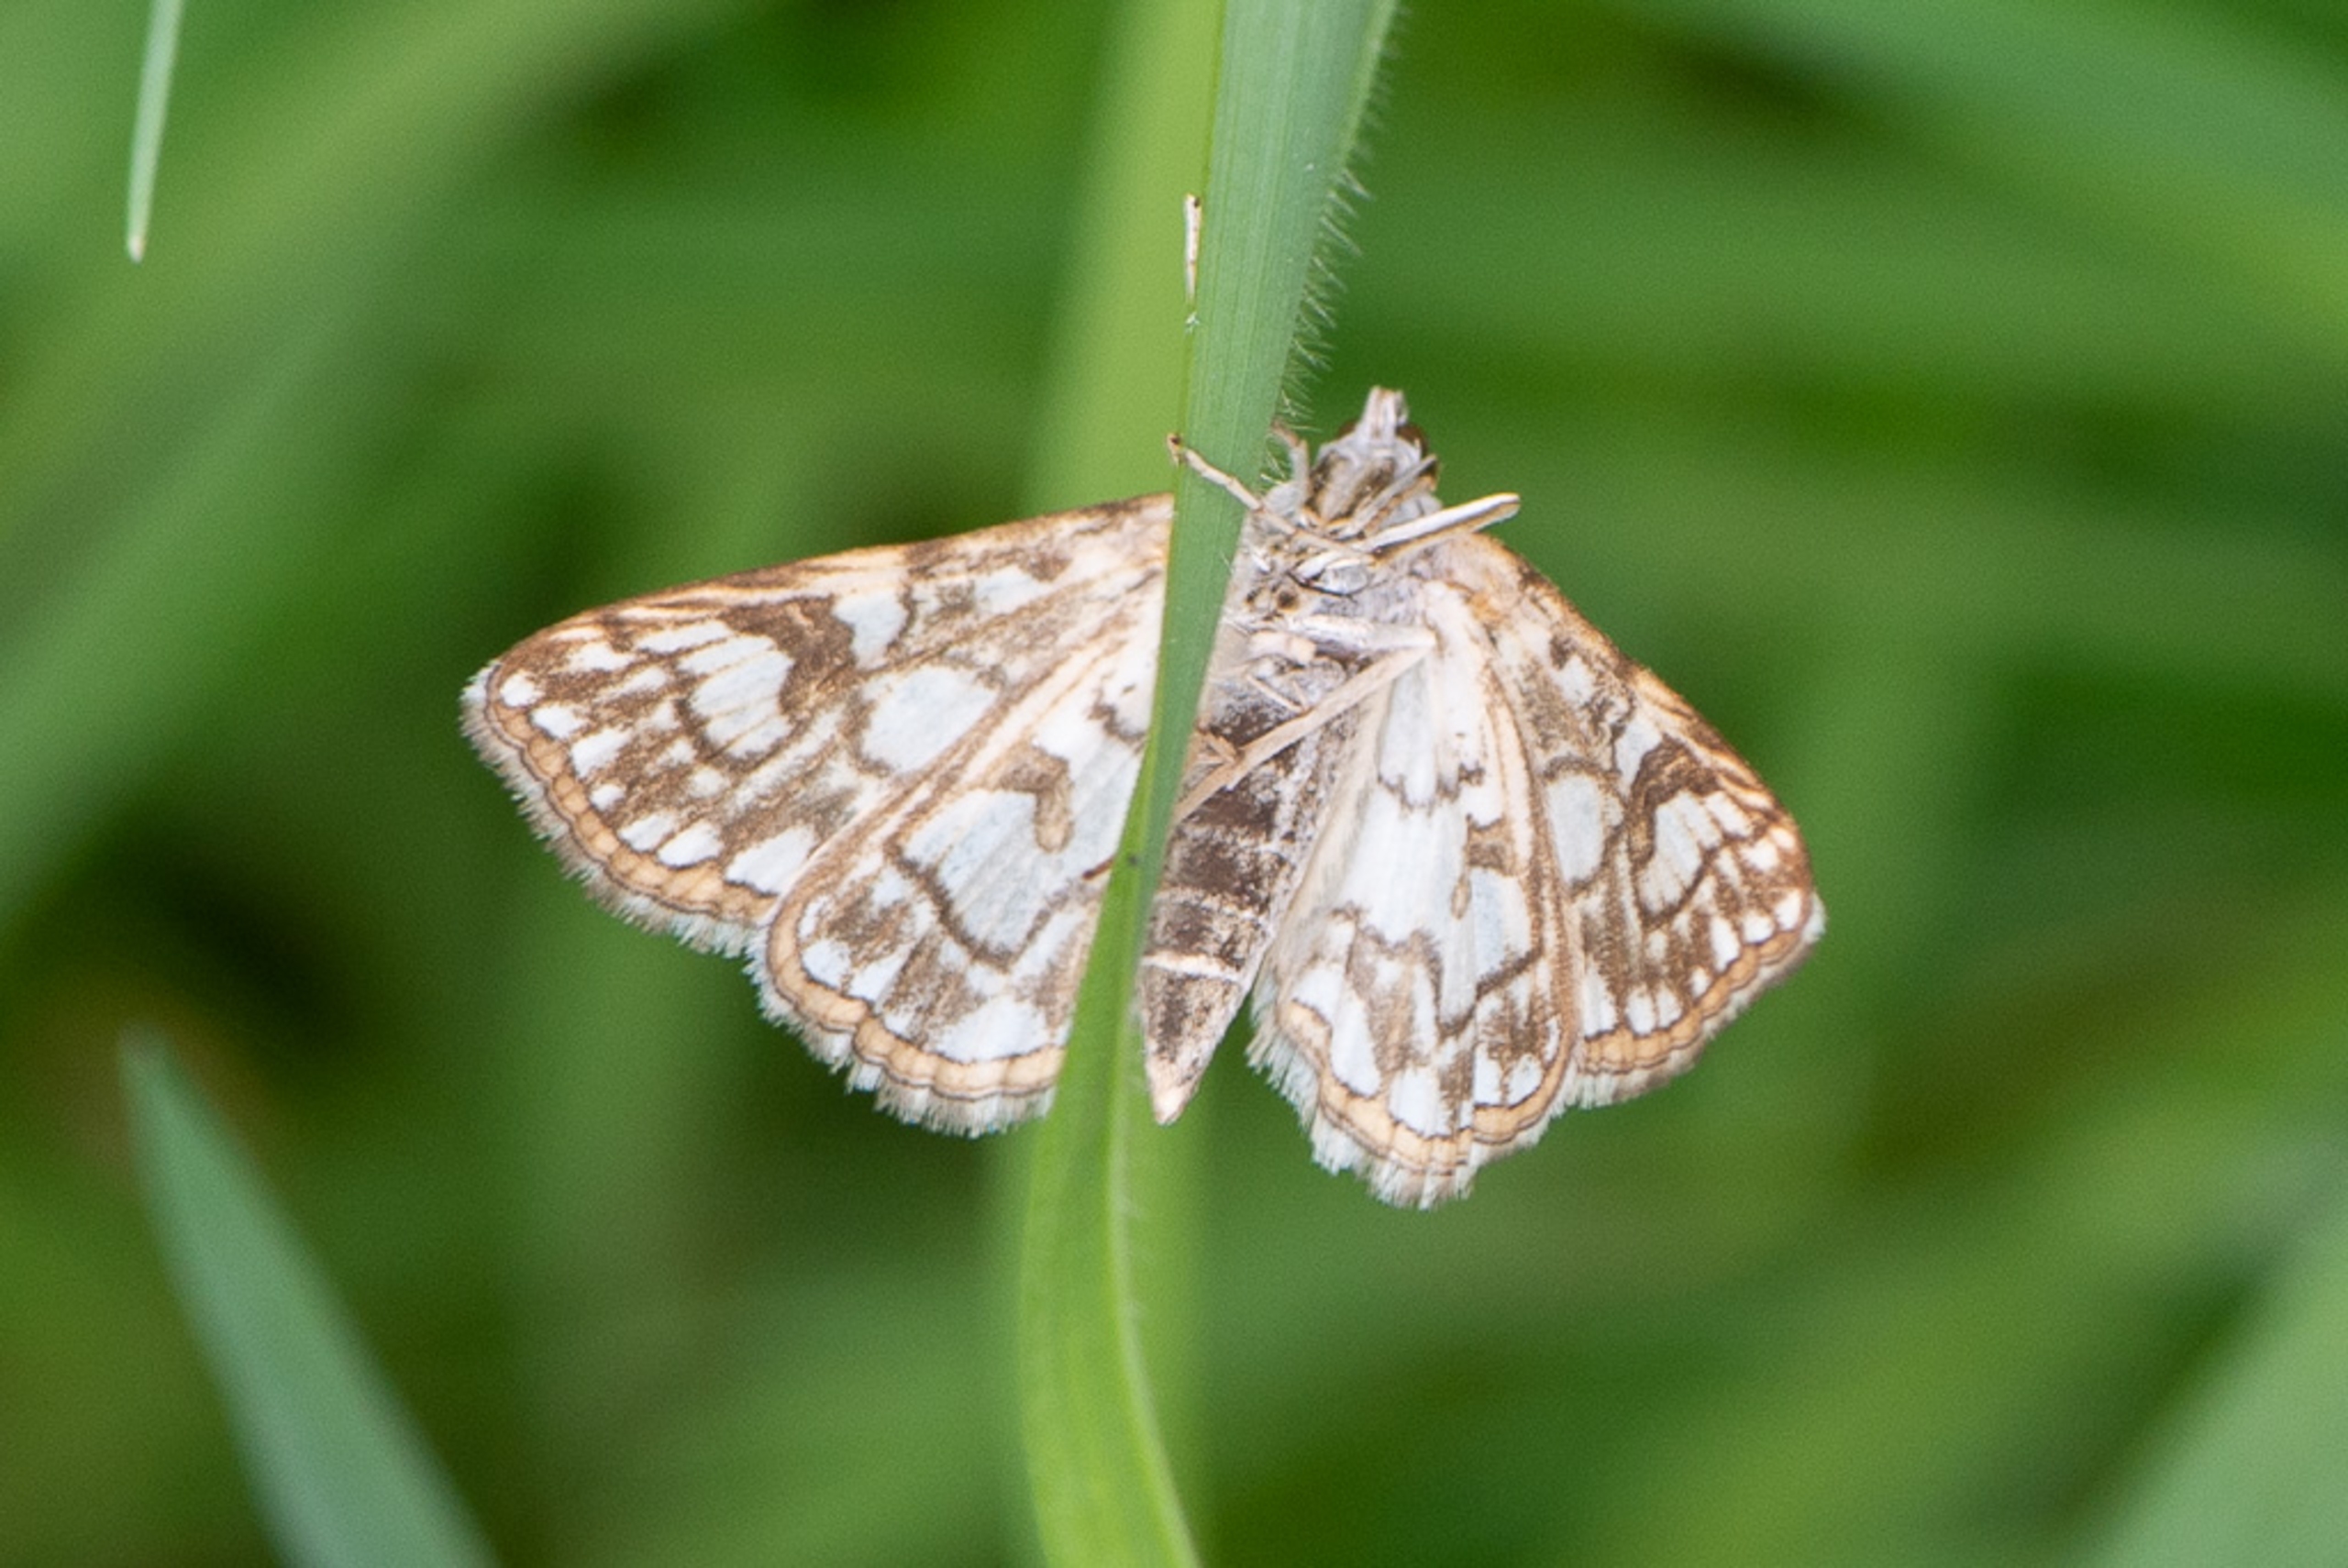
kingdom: Animalia
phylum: Arthropoda
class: Insecta
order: Lepidoptera
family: Crambidae
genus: Elophila
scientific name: Elophila nymphaeata
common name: Åkandehalvmøl
